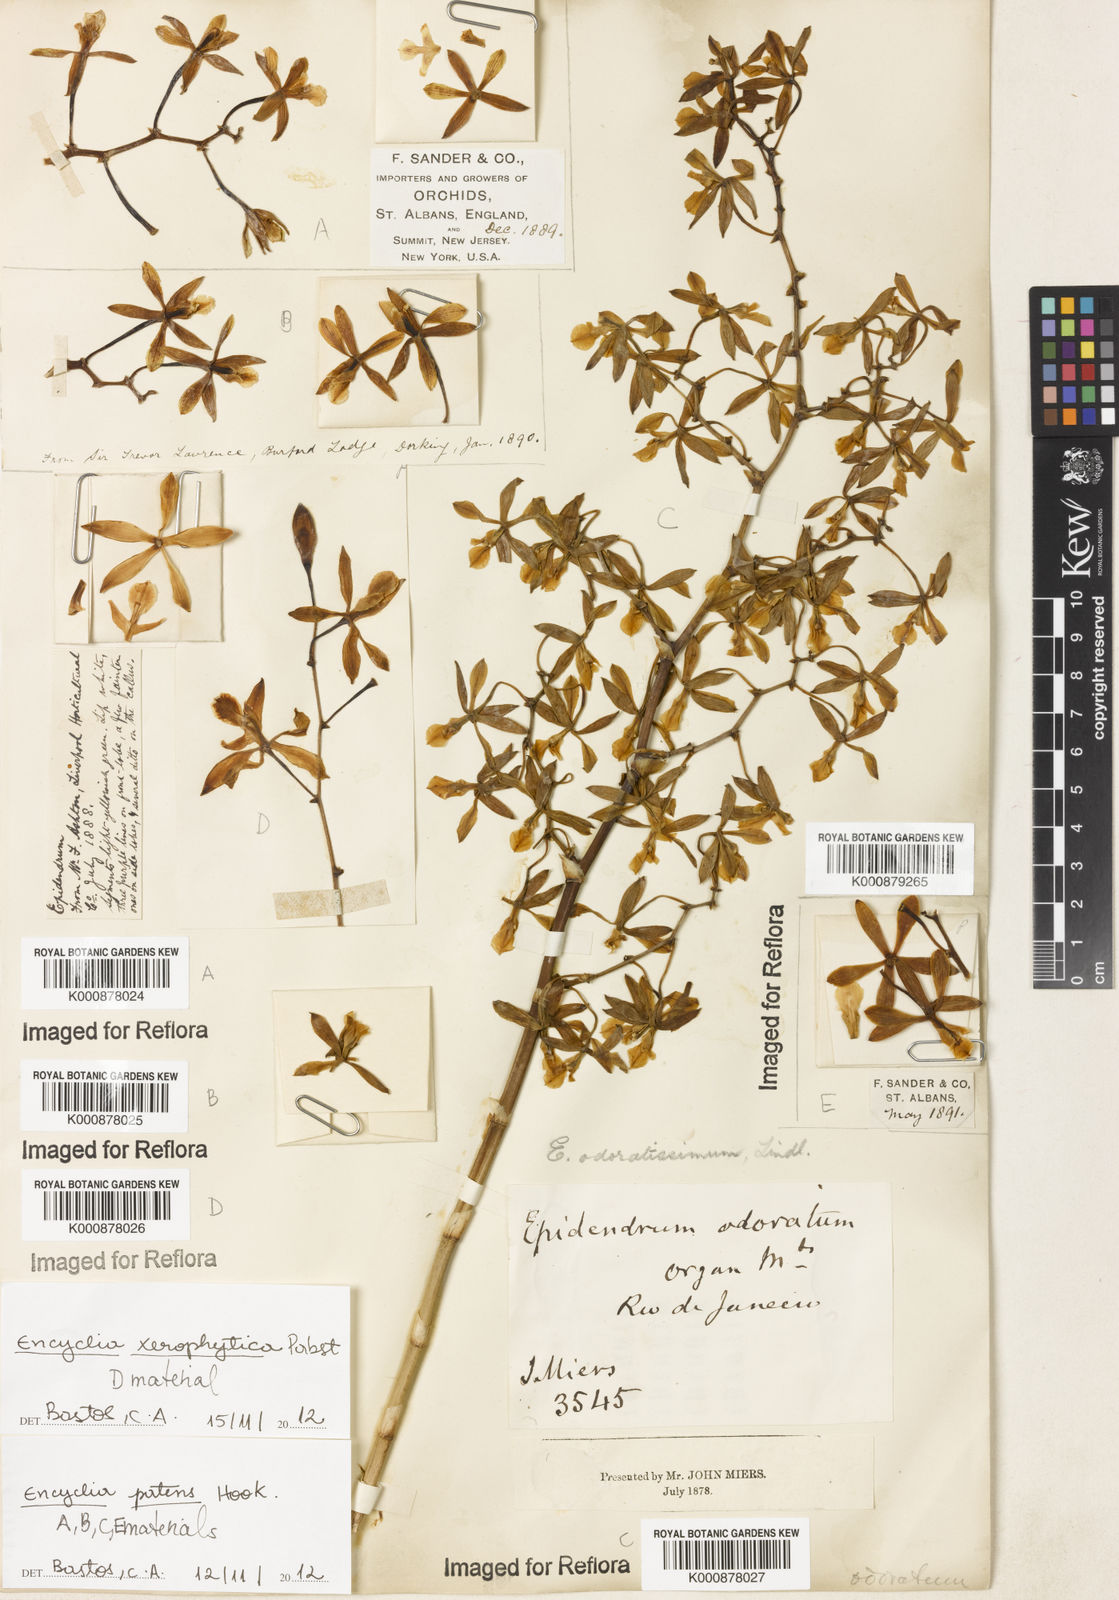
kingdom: Plantae
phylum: Tracheophyta
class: Liliopsida
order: Asparagales
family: Orchidaceae
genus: Encyclia
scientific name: Encyclia patens
